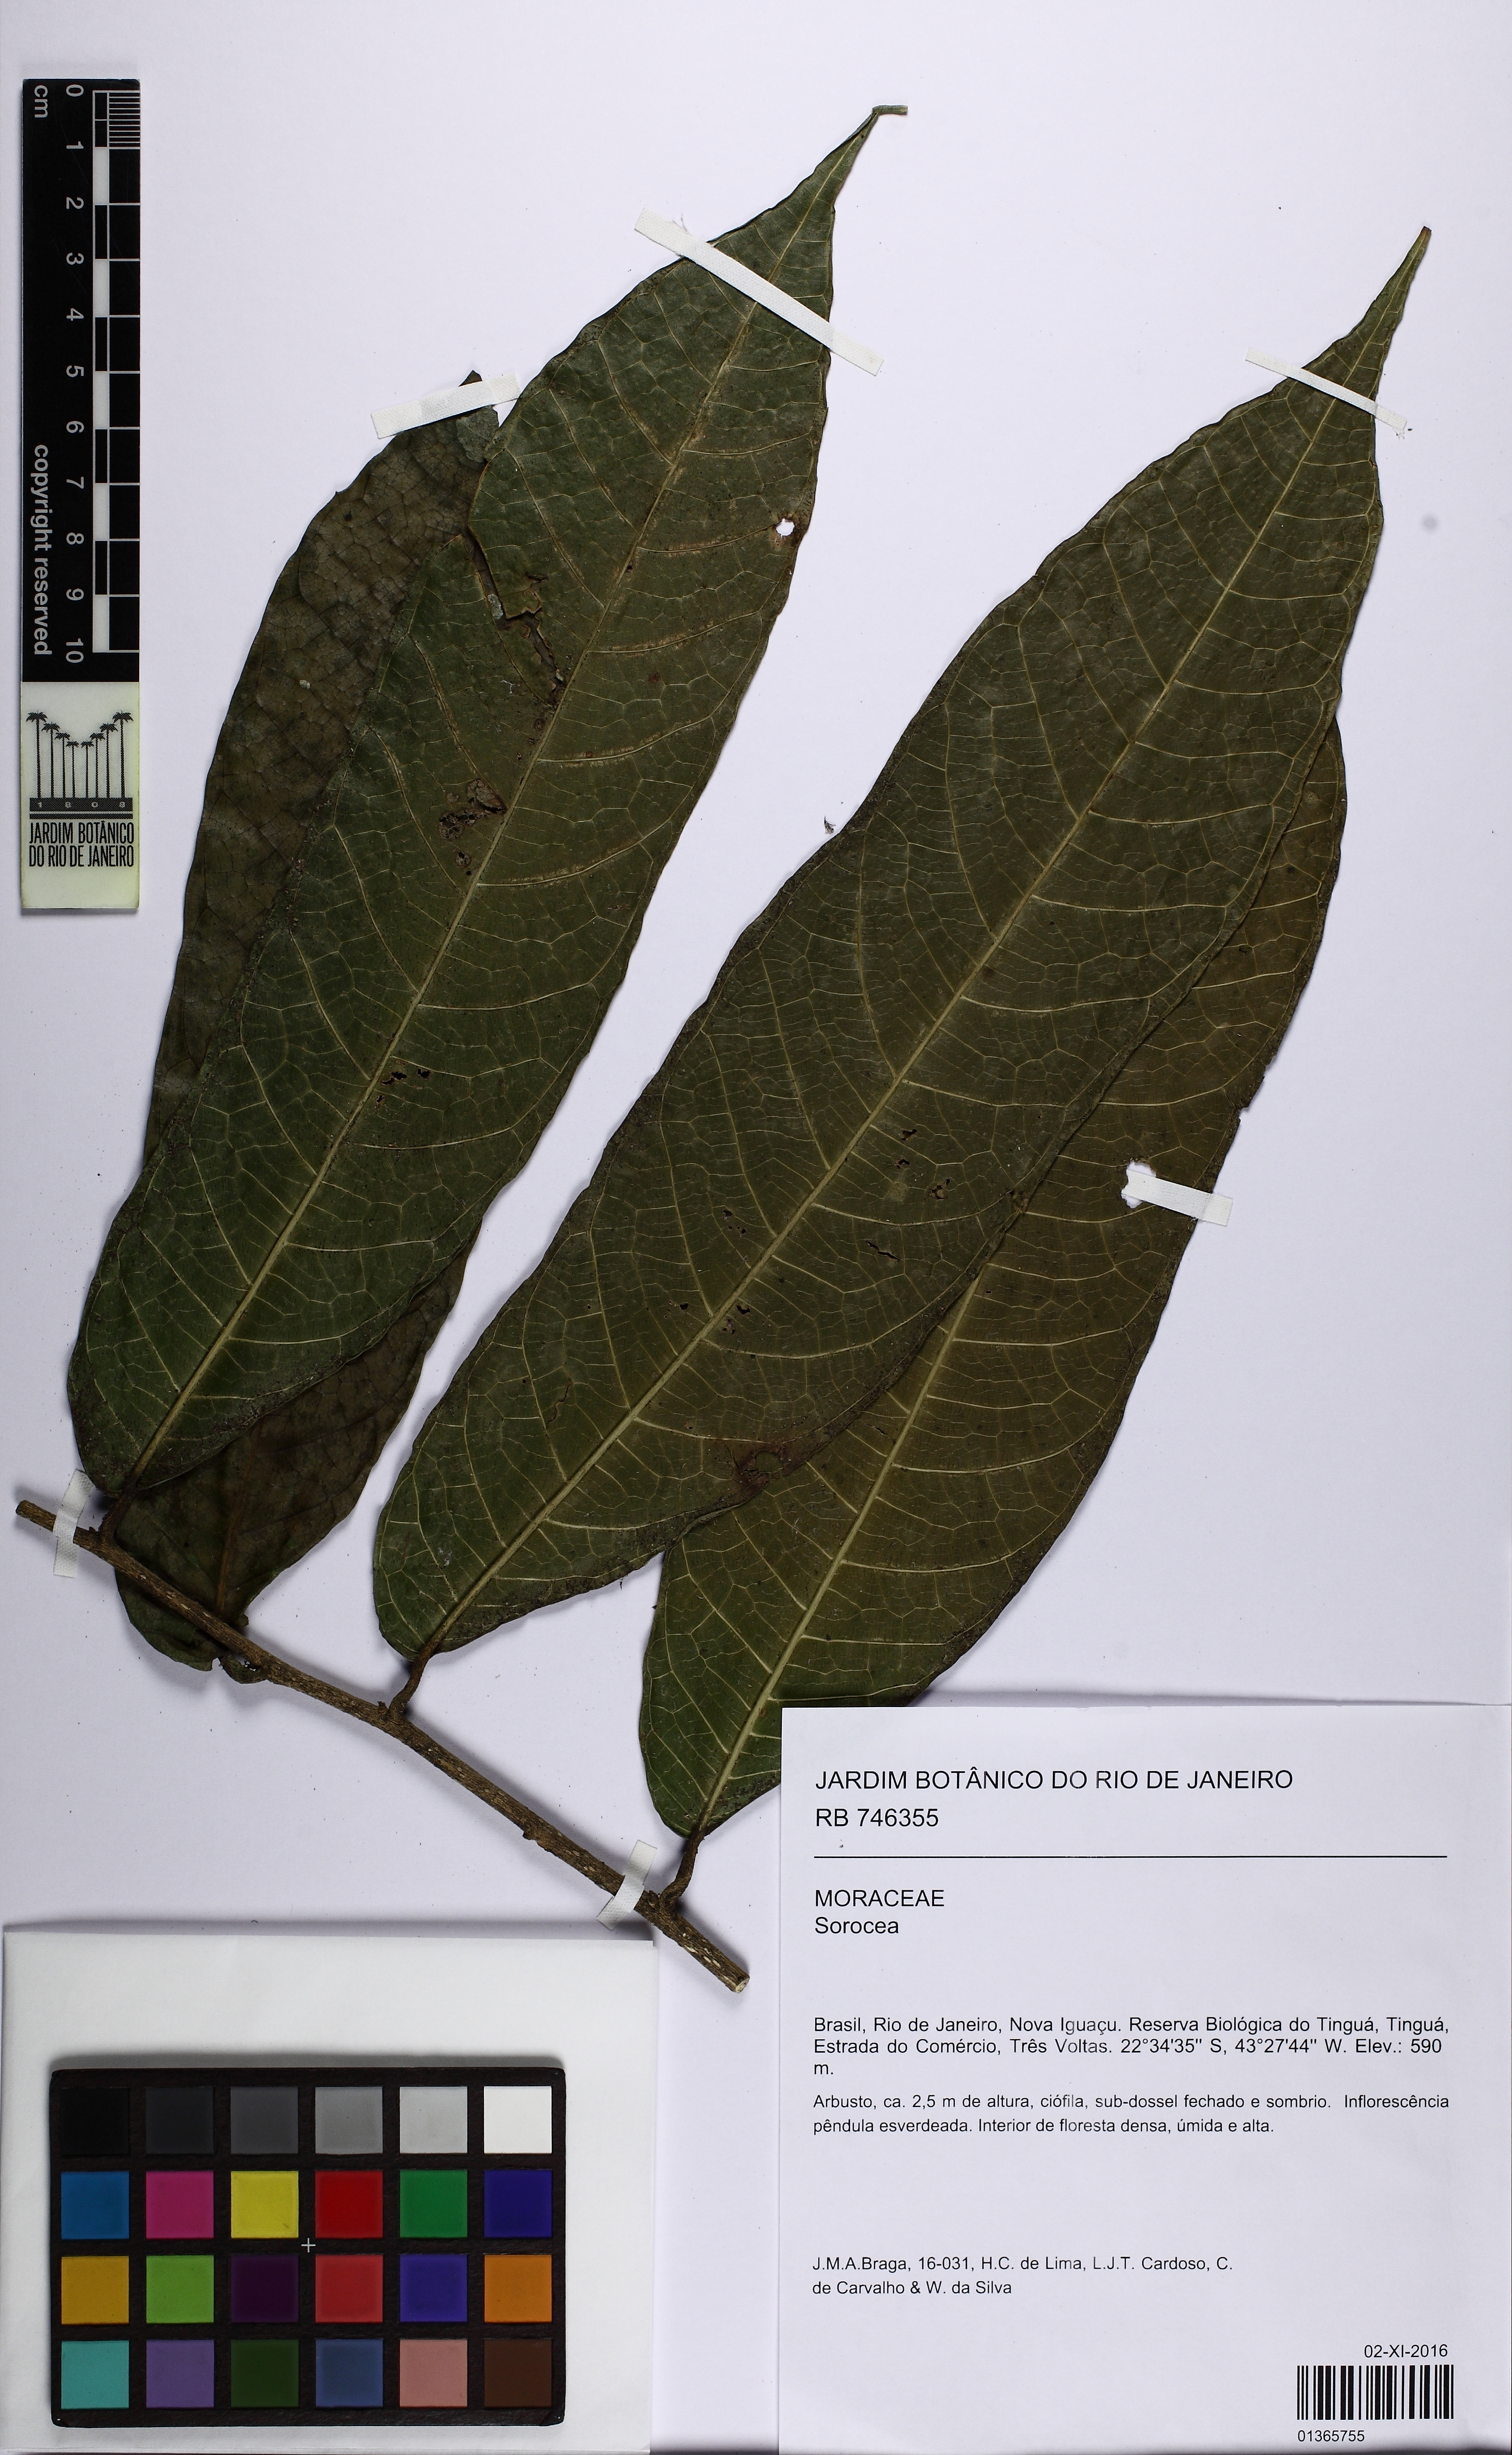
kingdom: Plantae
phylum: Tracheophyta
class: Magnoliopsida
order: Rosales
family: Moraceae
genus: Sorocea
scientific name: Sorocea
